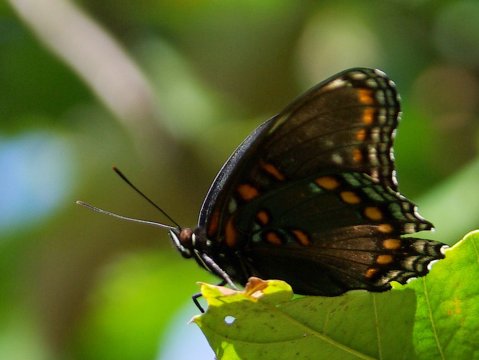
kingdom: Animalia
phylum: Arthropoda
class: Insecta
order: Lepidoptera
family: Nymphalidae
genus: Limenitis
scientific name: Limenitis arthemis
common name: Red-spotted Admiral
